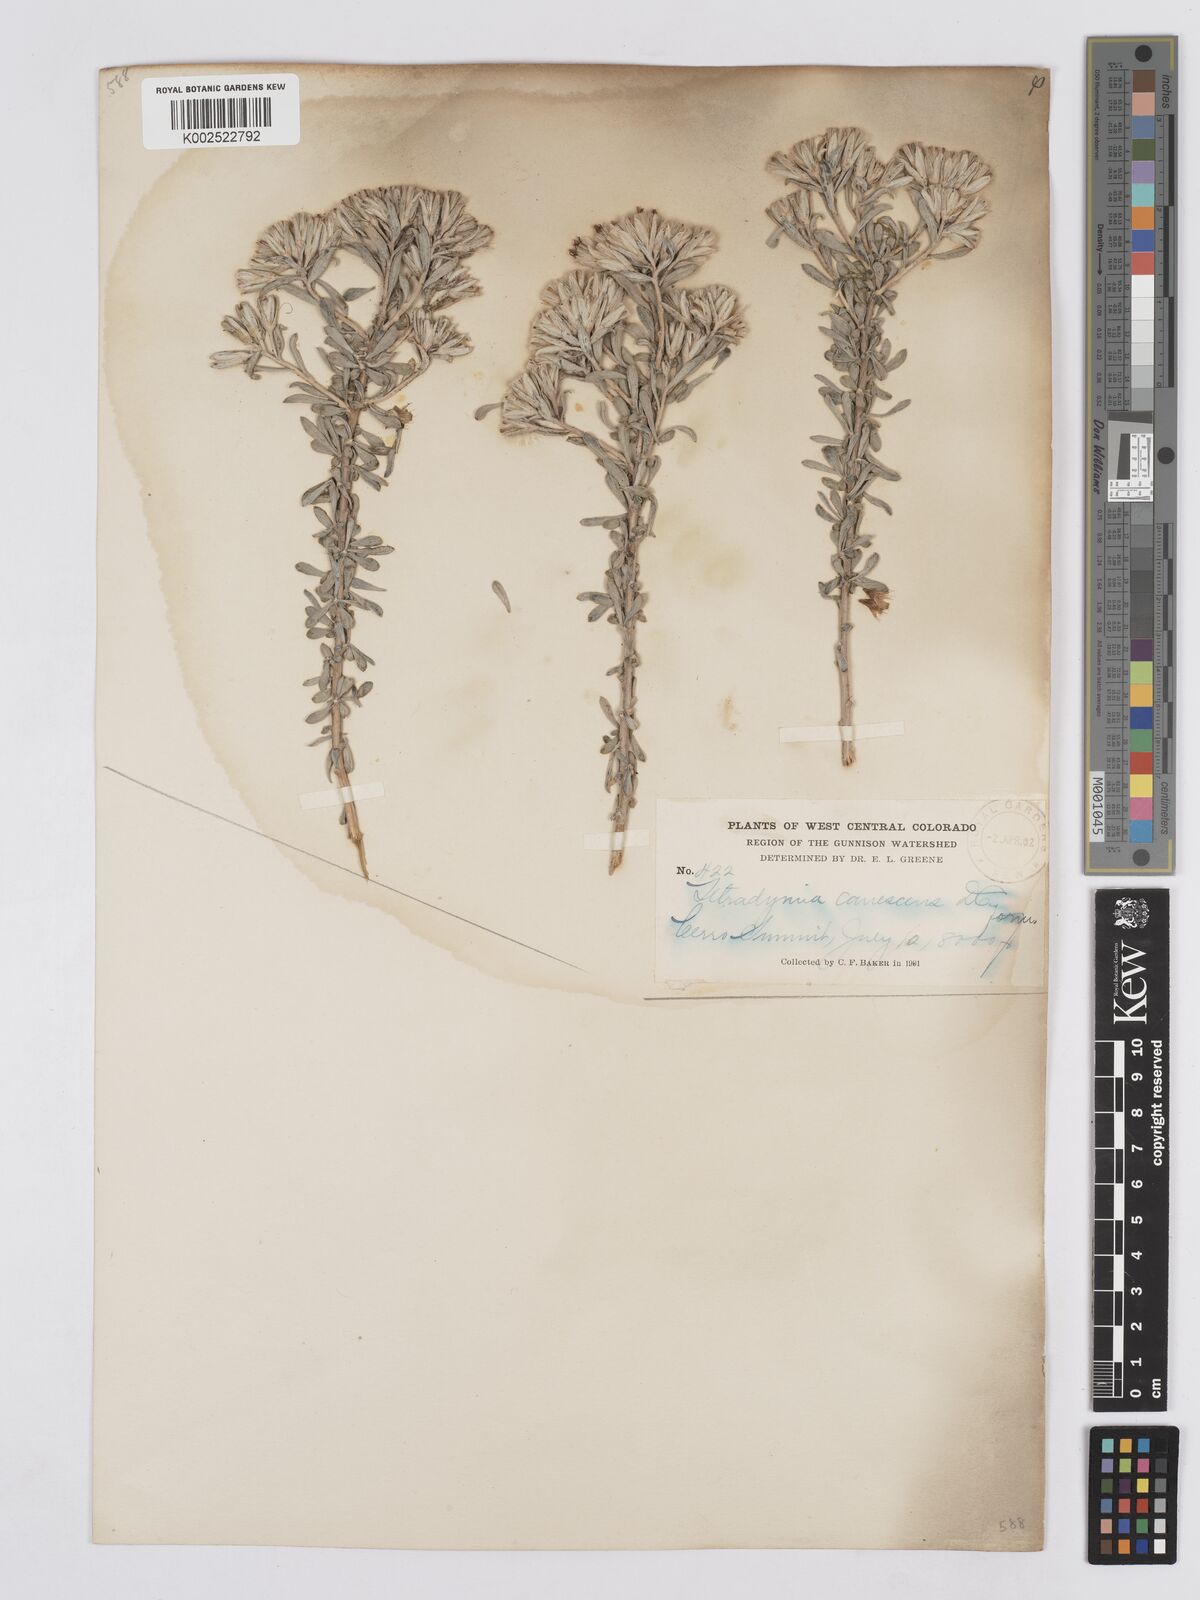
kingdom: Plantae
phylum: Tracheophyta
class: Magnoliopsida
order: Asterales
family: Asteraceae
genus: Tetradymia
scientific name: Tetradymia canescens
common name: Spineless horsebrush
